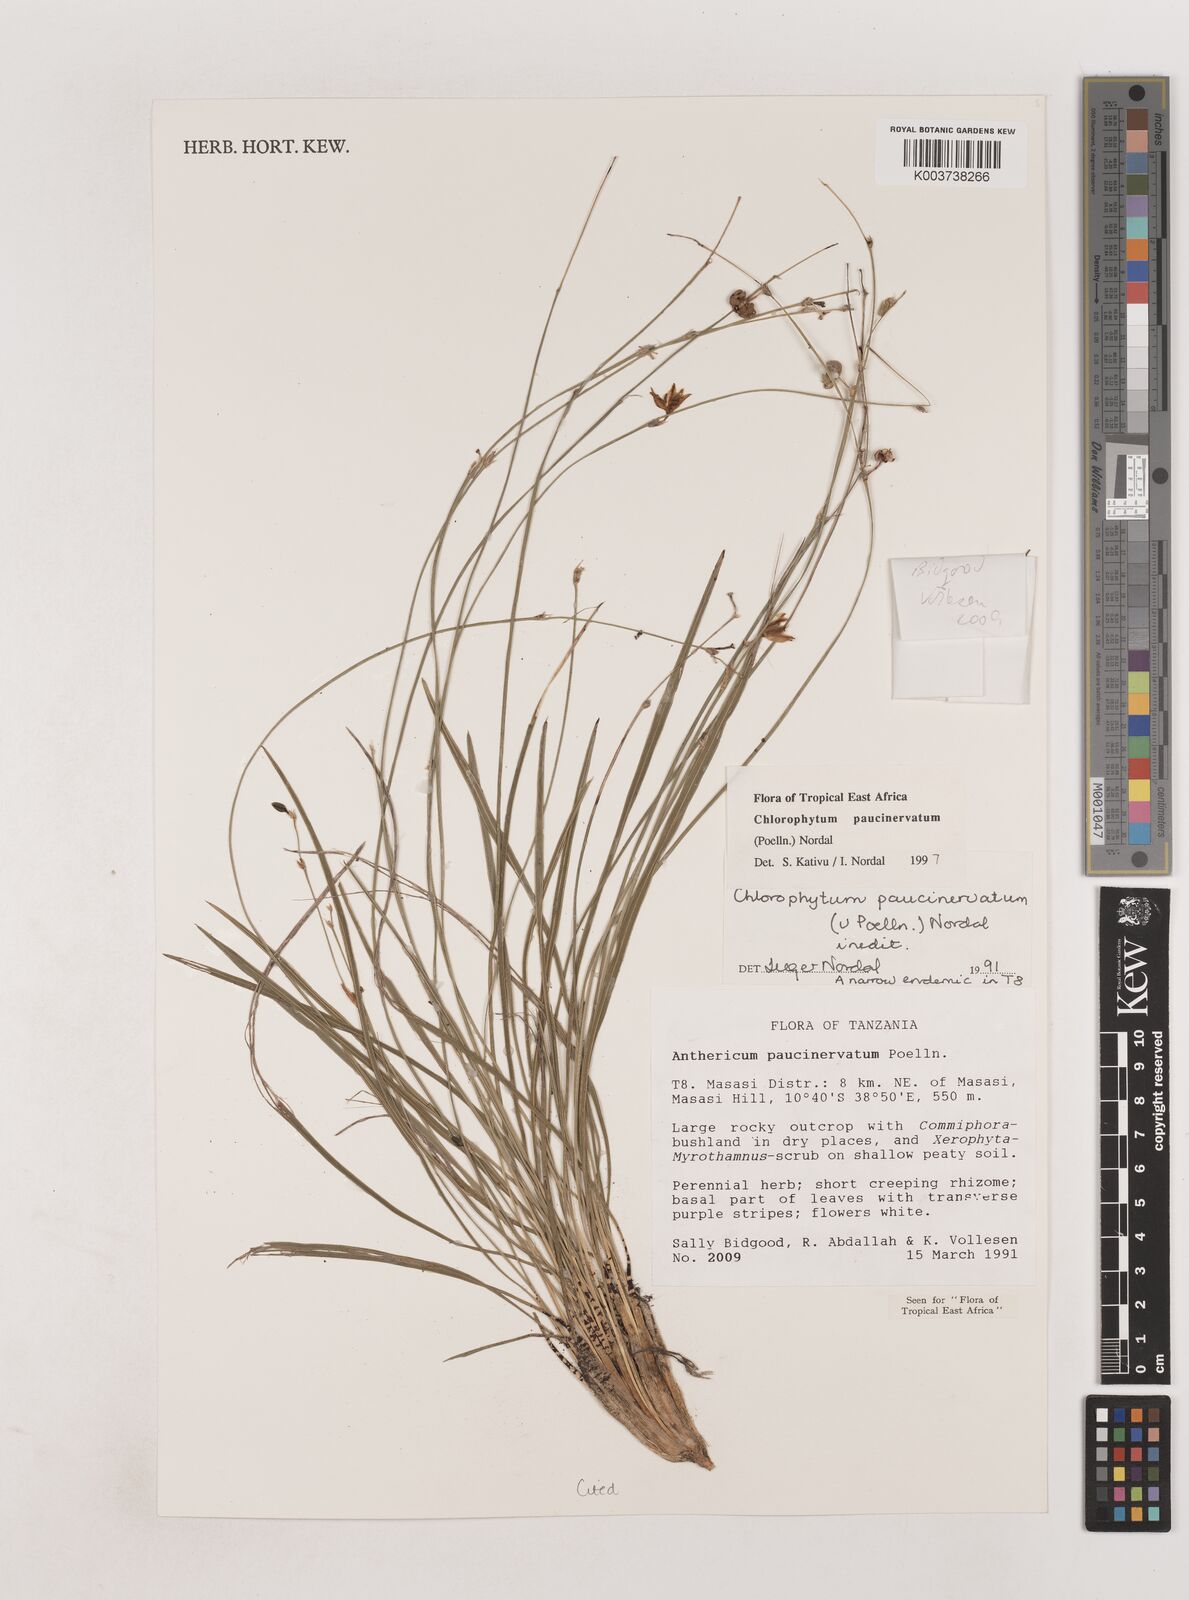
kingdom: Plantae
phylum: Tracheophyta
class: Liliopsida
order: Asparagales
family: Asparagaceae
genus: Chlorophytum
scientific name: Chlorophytum paucinervatum
